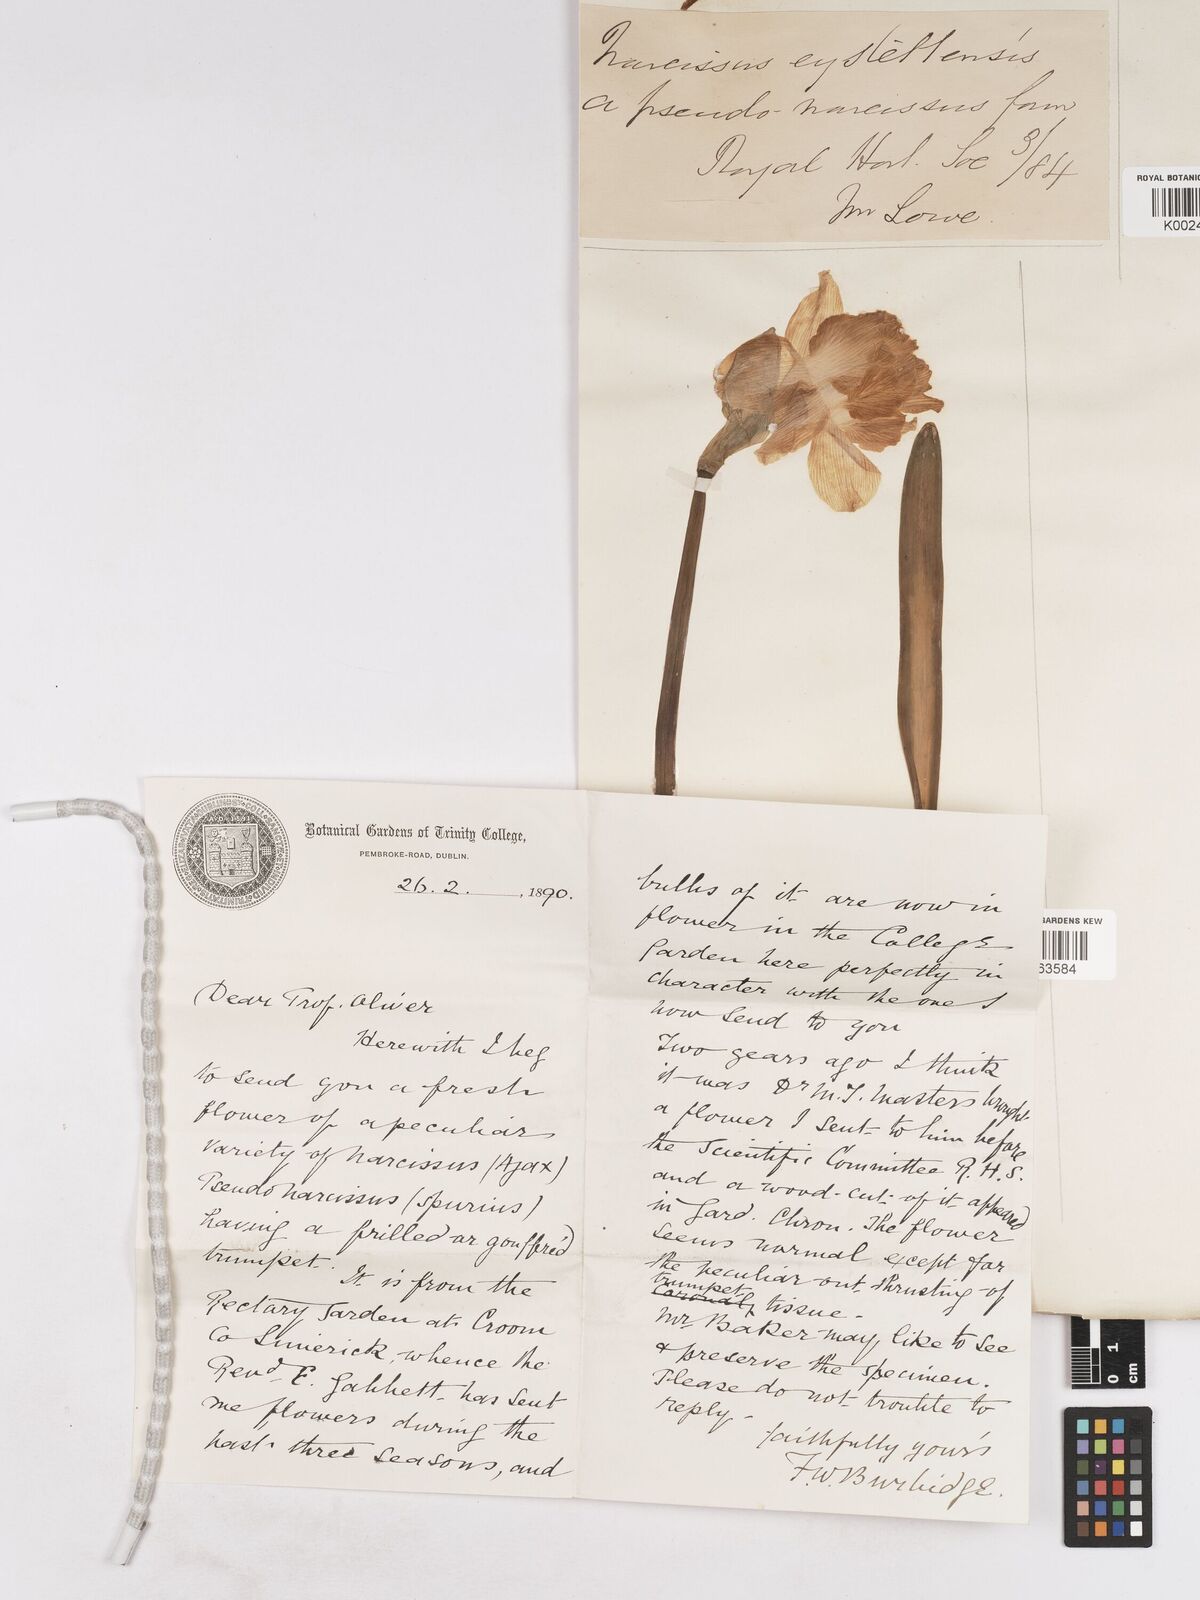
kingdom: Plantae
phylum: Tracheophyta
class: Liliopsida
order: Asparagales
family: Amaryllidaceae
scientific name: Amaryllidaceae
